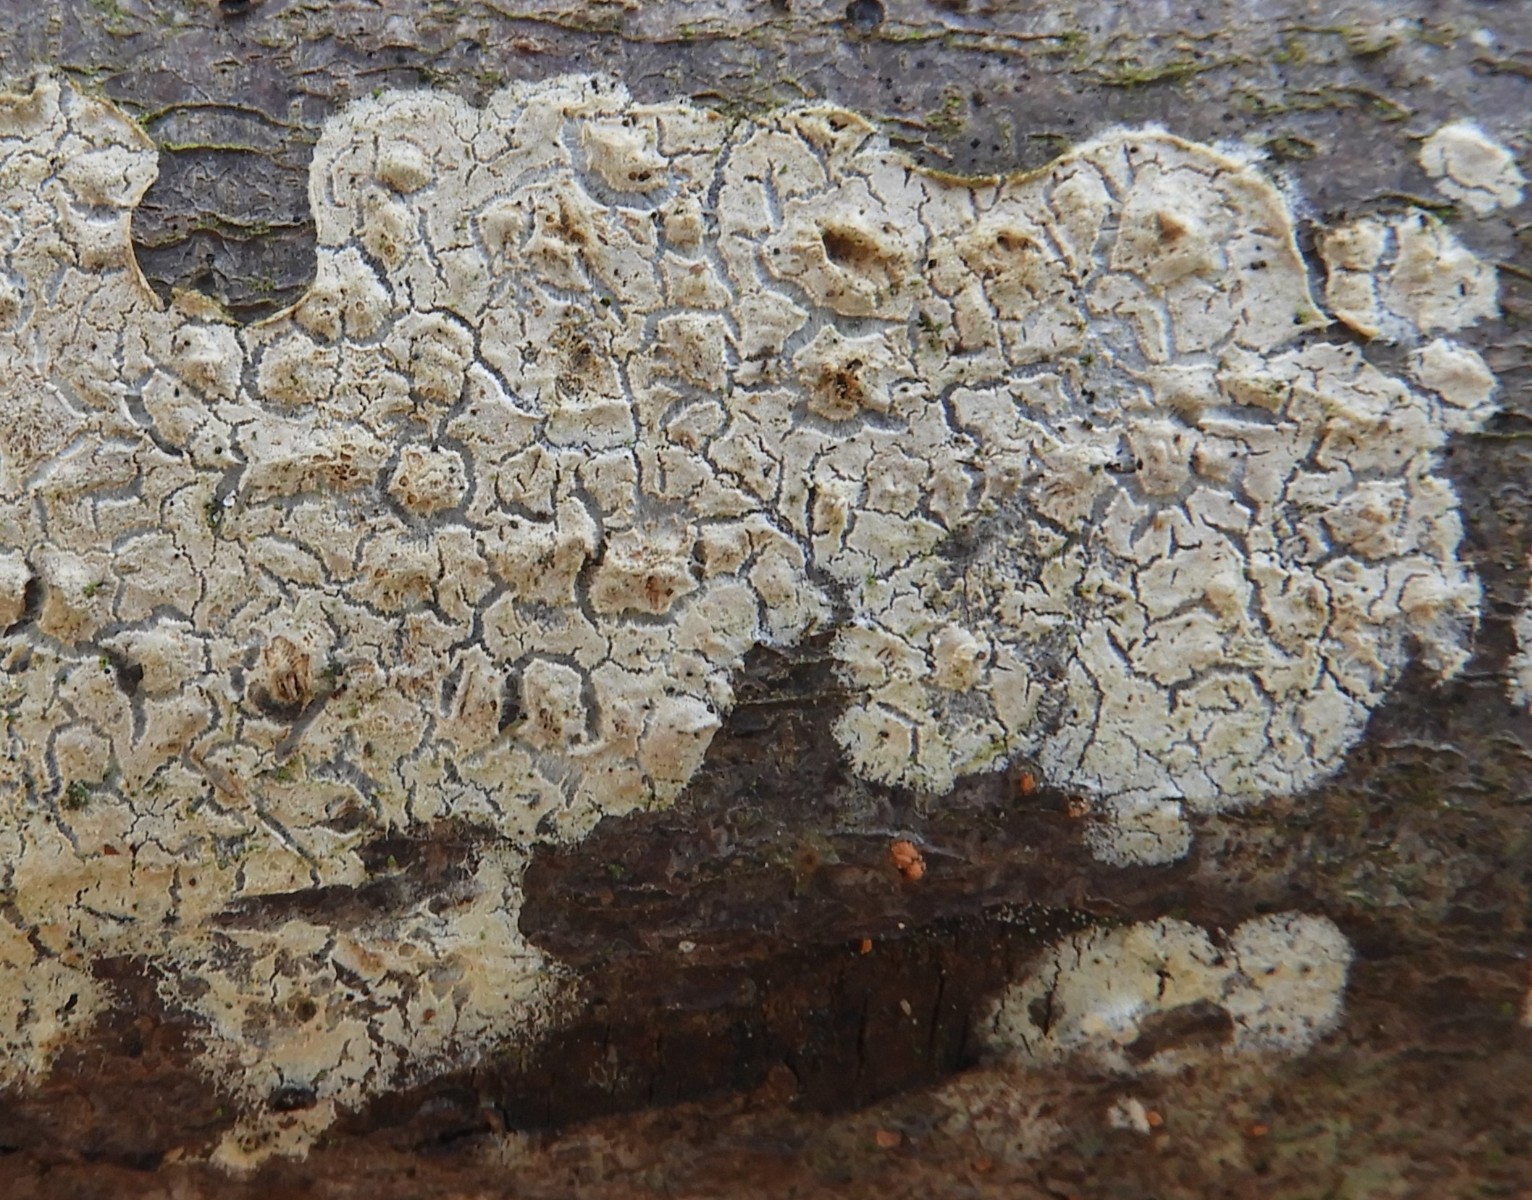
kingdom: Fungi
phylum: Basidiomycota
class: Agaricomycetes
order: Agaricales
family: Physalacriaceae
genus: Cylindrobasidium
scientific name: Cylindrobasidium evolvens
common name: sprækkehinde
